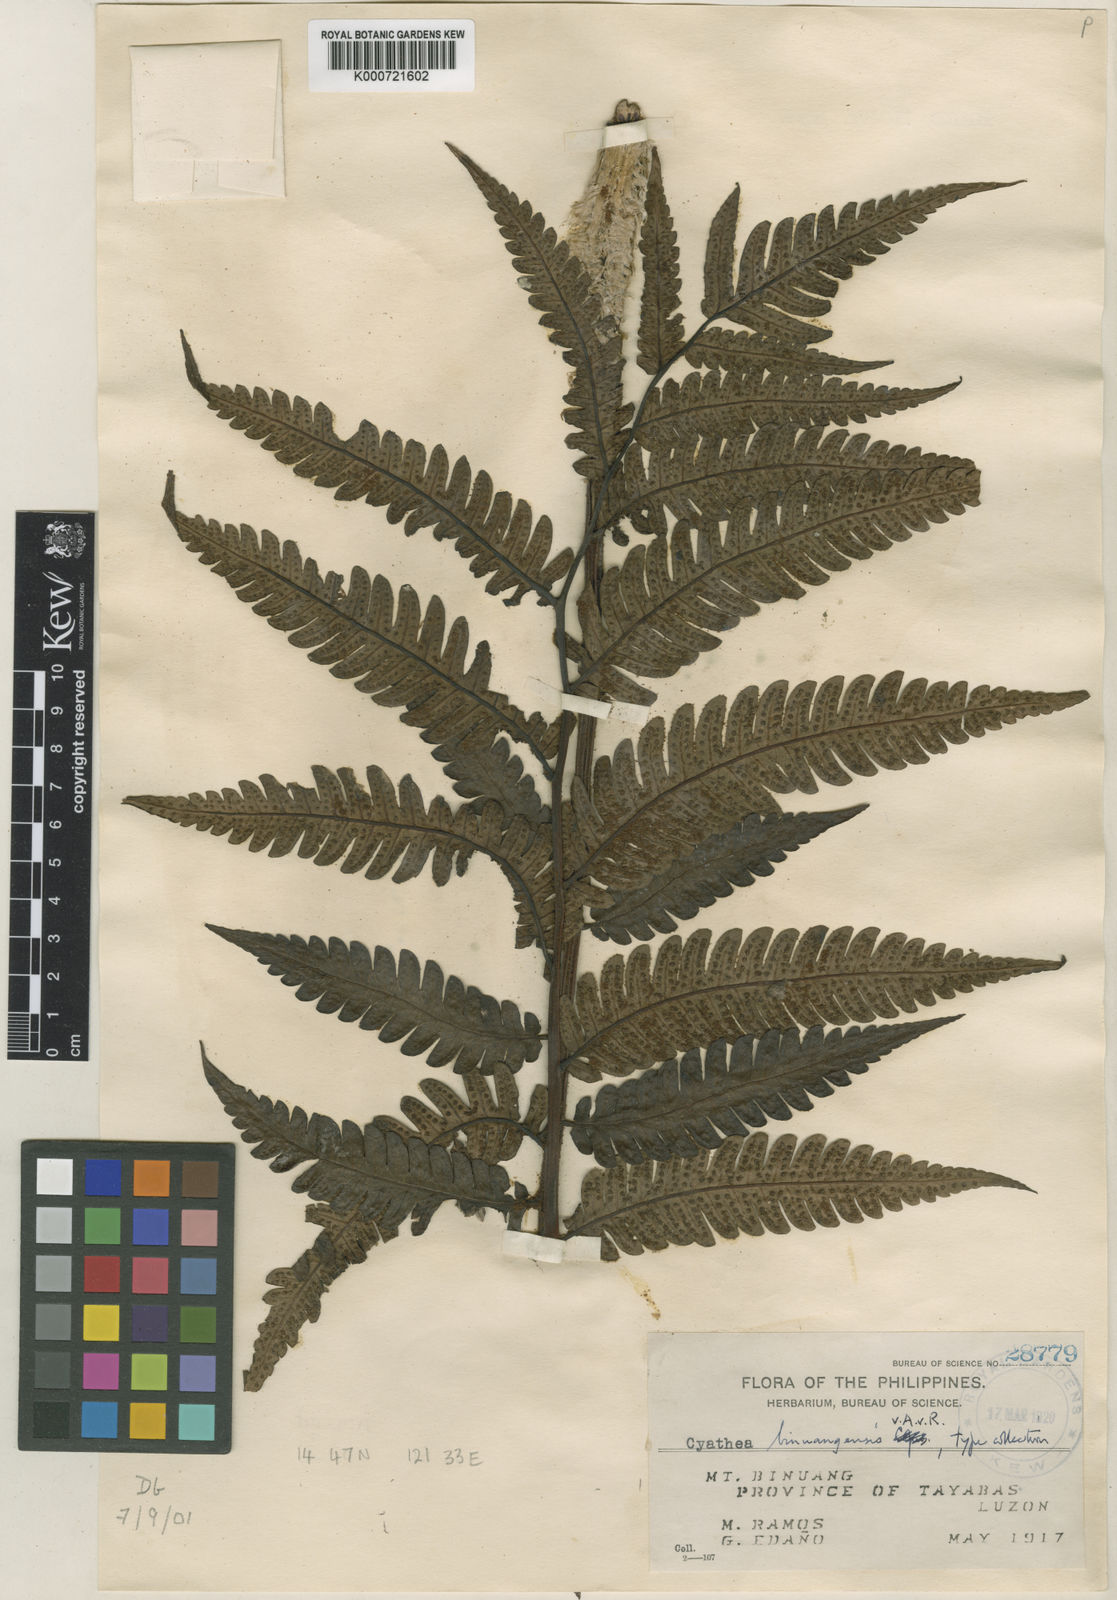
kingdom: Plantae
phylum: Tracheophyta
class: Polypodiopsida
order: Cyatheales
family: Cyatheaceae
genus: Sphaeropteris
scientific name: Sphaeropteris binuangensis
